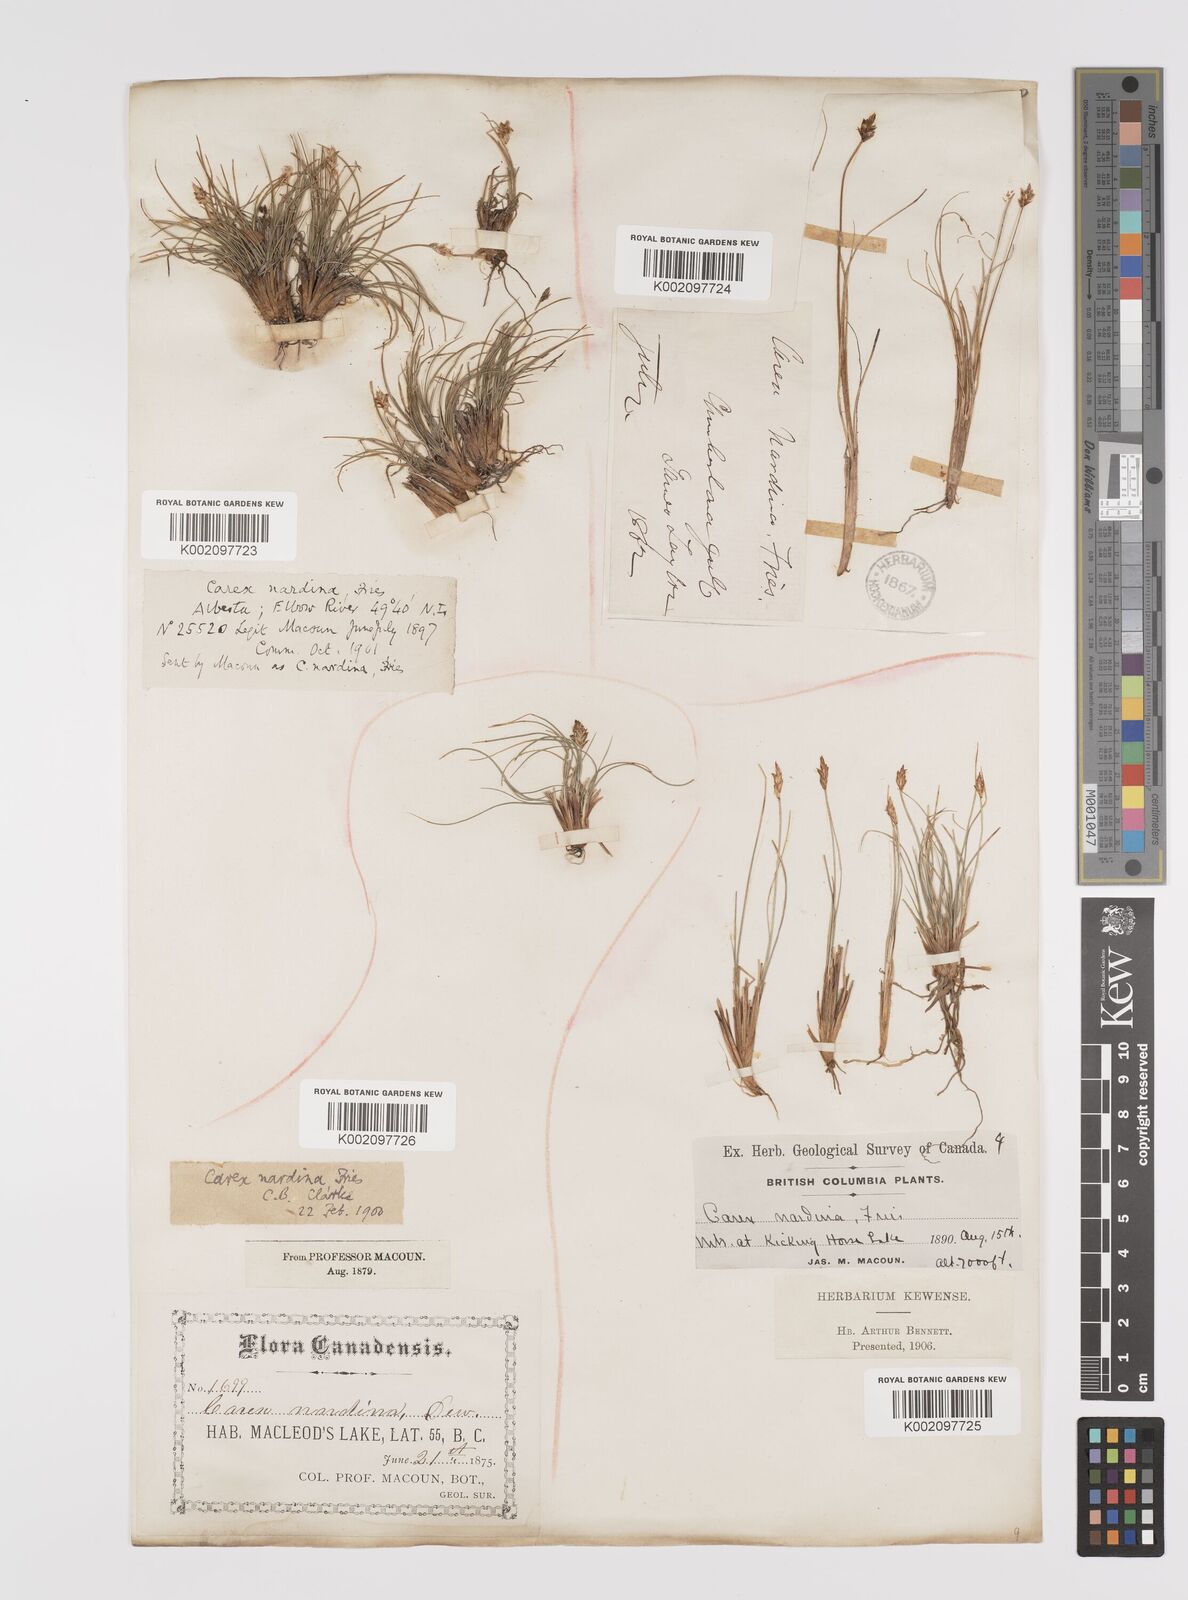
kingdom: Plantae
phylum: Tracheophyta
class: Liliopsida
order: Poales
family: Cyperaceae
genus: Carex
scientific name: Carex nardina
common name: Nard sedge
